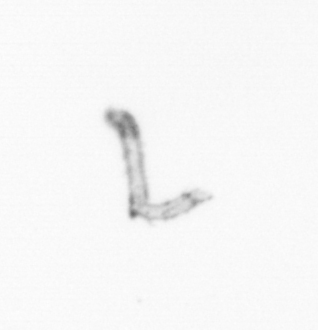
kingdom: Chromista
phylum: Ochrophyta
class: Bacillariophyceae
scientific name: Bacillariophyceae
